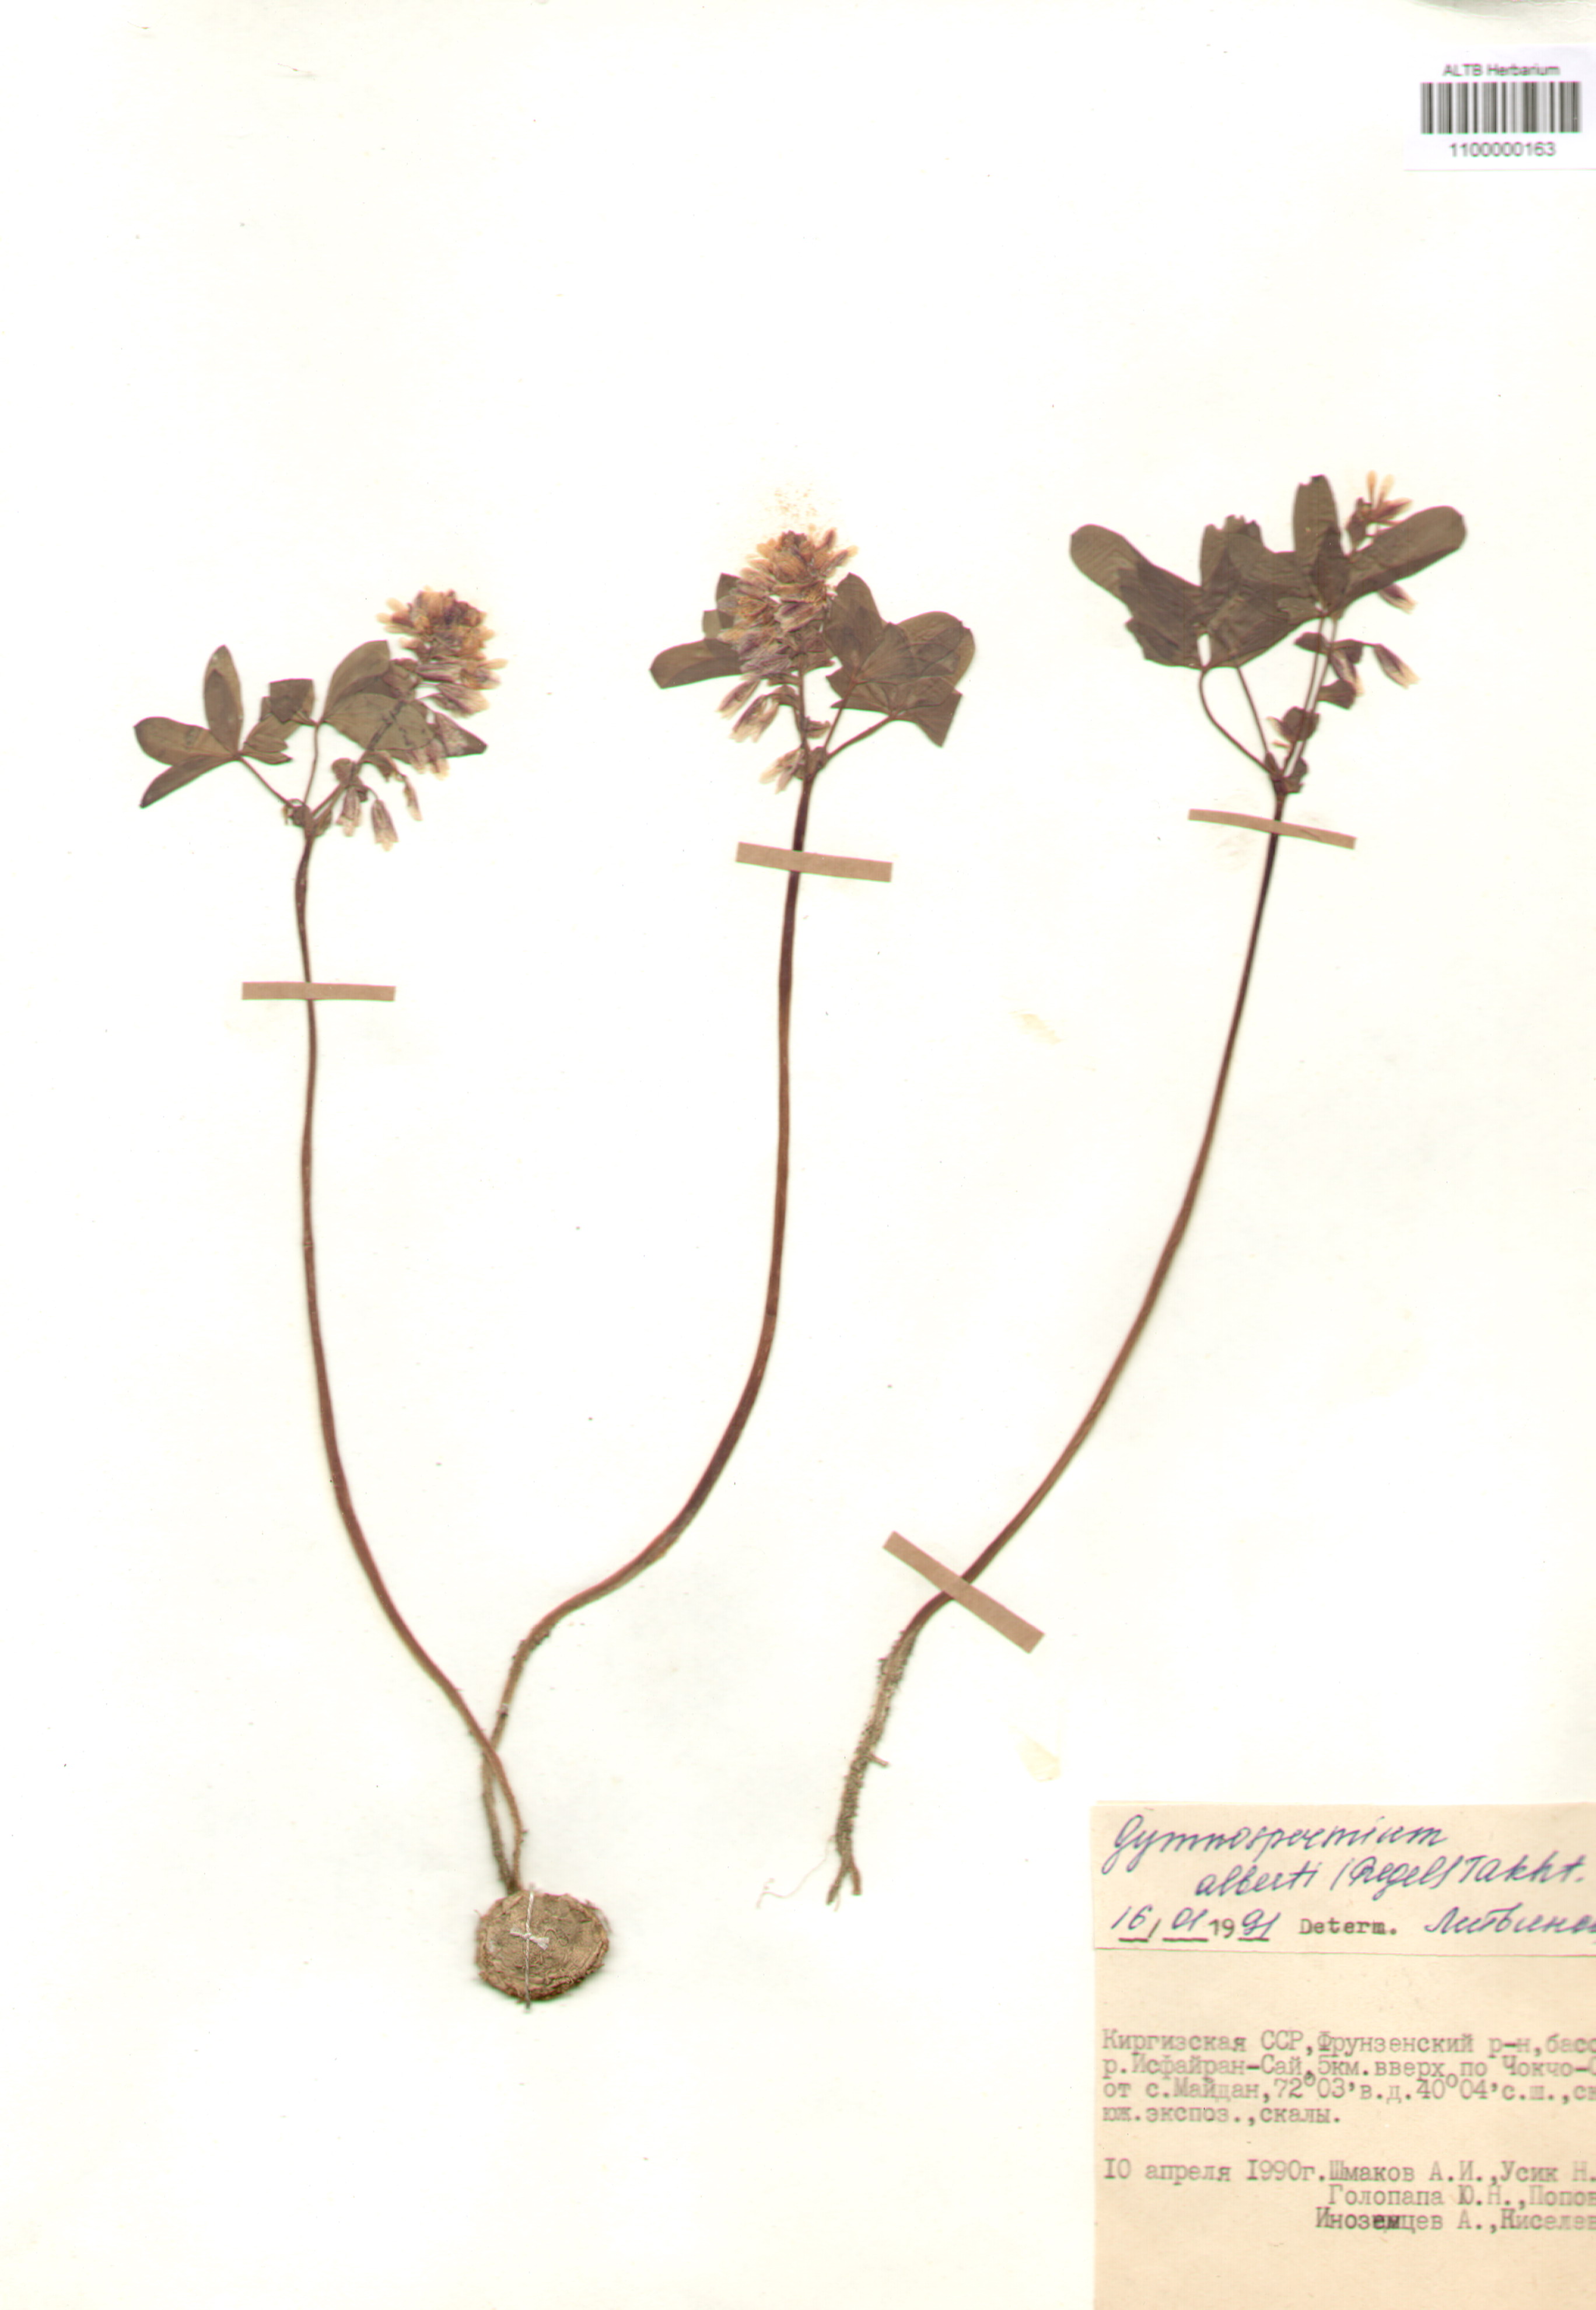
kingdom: Plantae
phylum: Tracheophyta
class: Magnoliopsida
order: Ranunculales
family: Berberidaceae
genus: Gymnospermium
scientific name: Gymnospermium alberti
